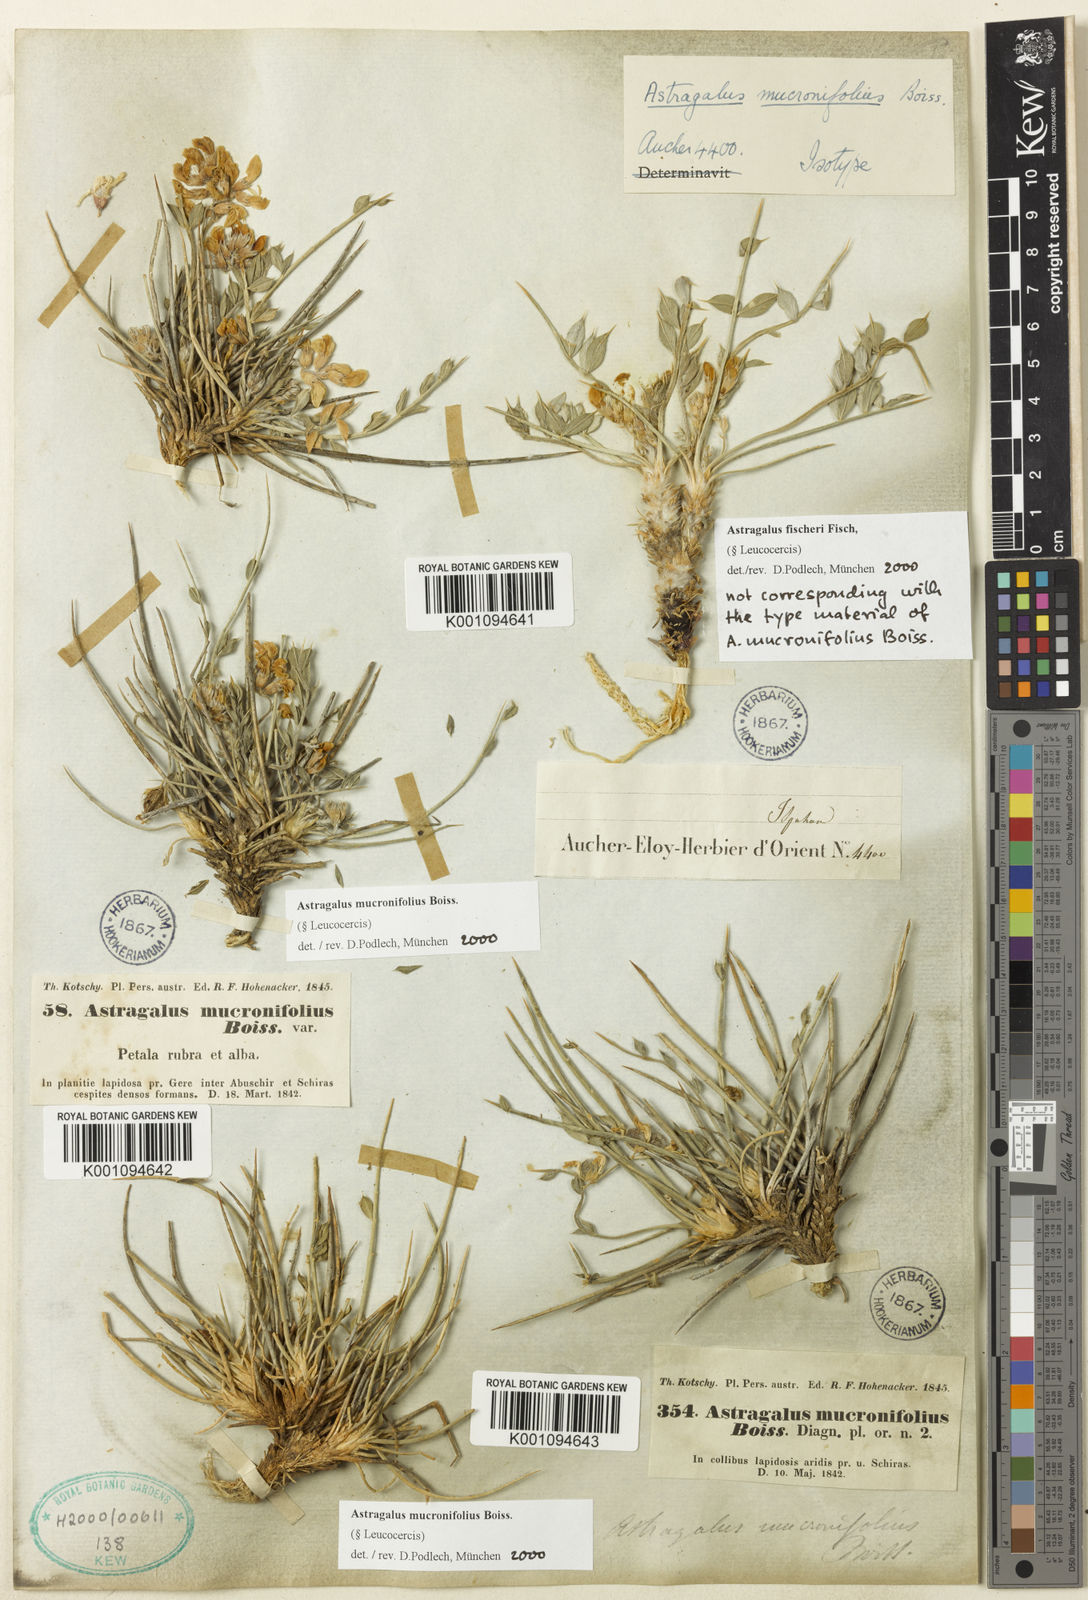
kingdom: Plantae
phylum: Tracheophyta
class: Magnoliopsida
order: Fabales
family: Fabaceae
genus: Astragalus
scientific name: Astragalus
